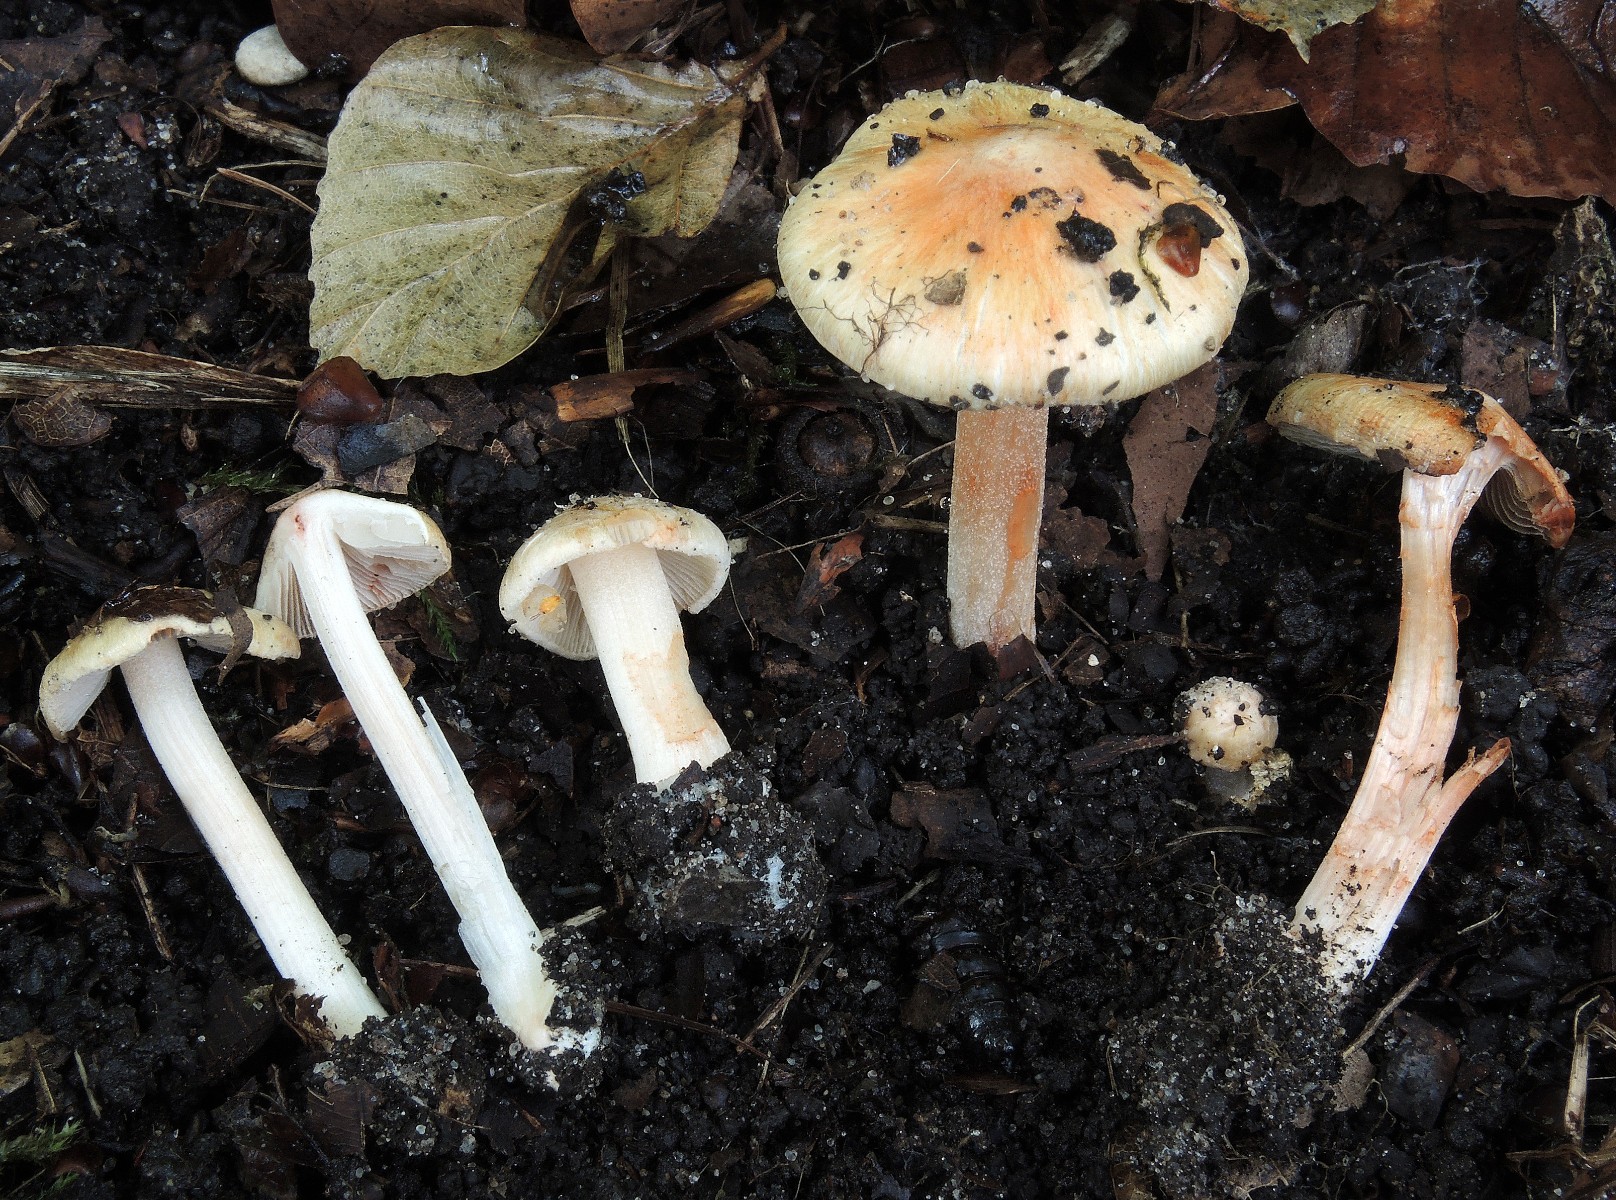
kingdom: Fungi
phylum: Basidiomycota
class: Agaricomycetes
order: Agaricales
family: Inocybaceae
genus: Inocybe
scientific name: Inocybe godeyi
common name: orangerødmende trævlhat
